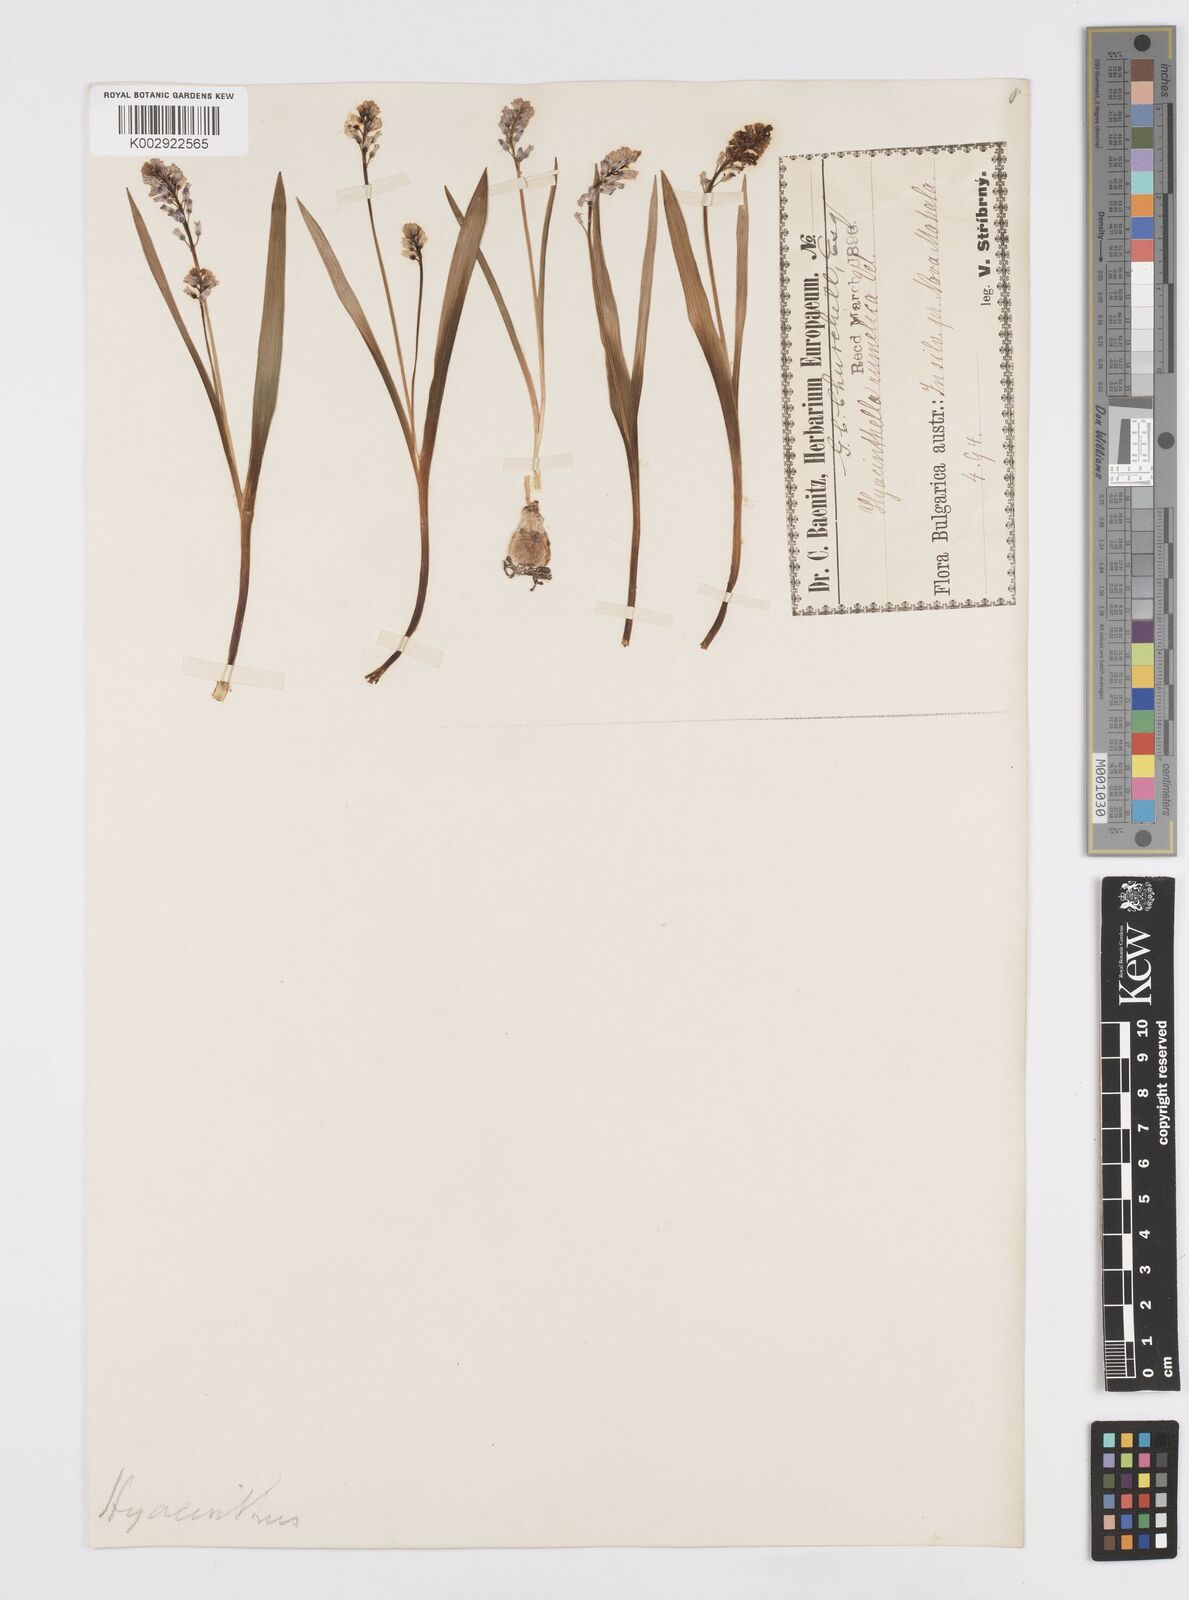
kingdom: Plantae
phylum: Tracheophyta
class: Liliopsida
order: Asparagales
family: Asparagaceae
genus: Hyacinthella
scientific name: Hyacinthella leucophaea
